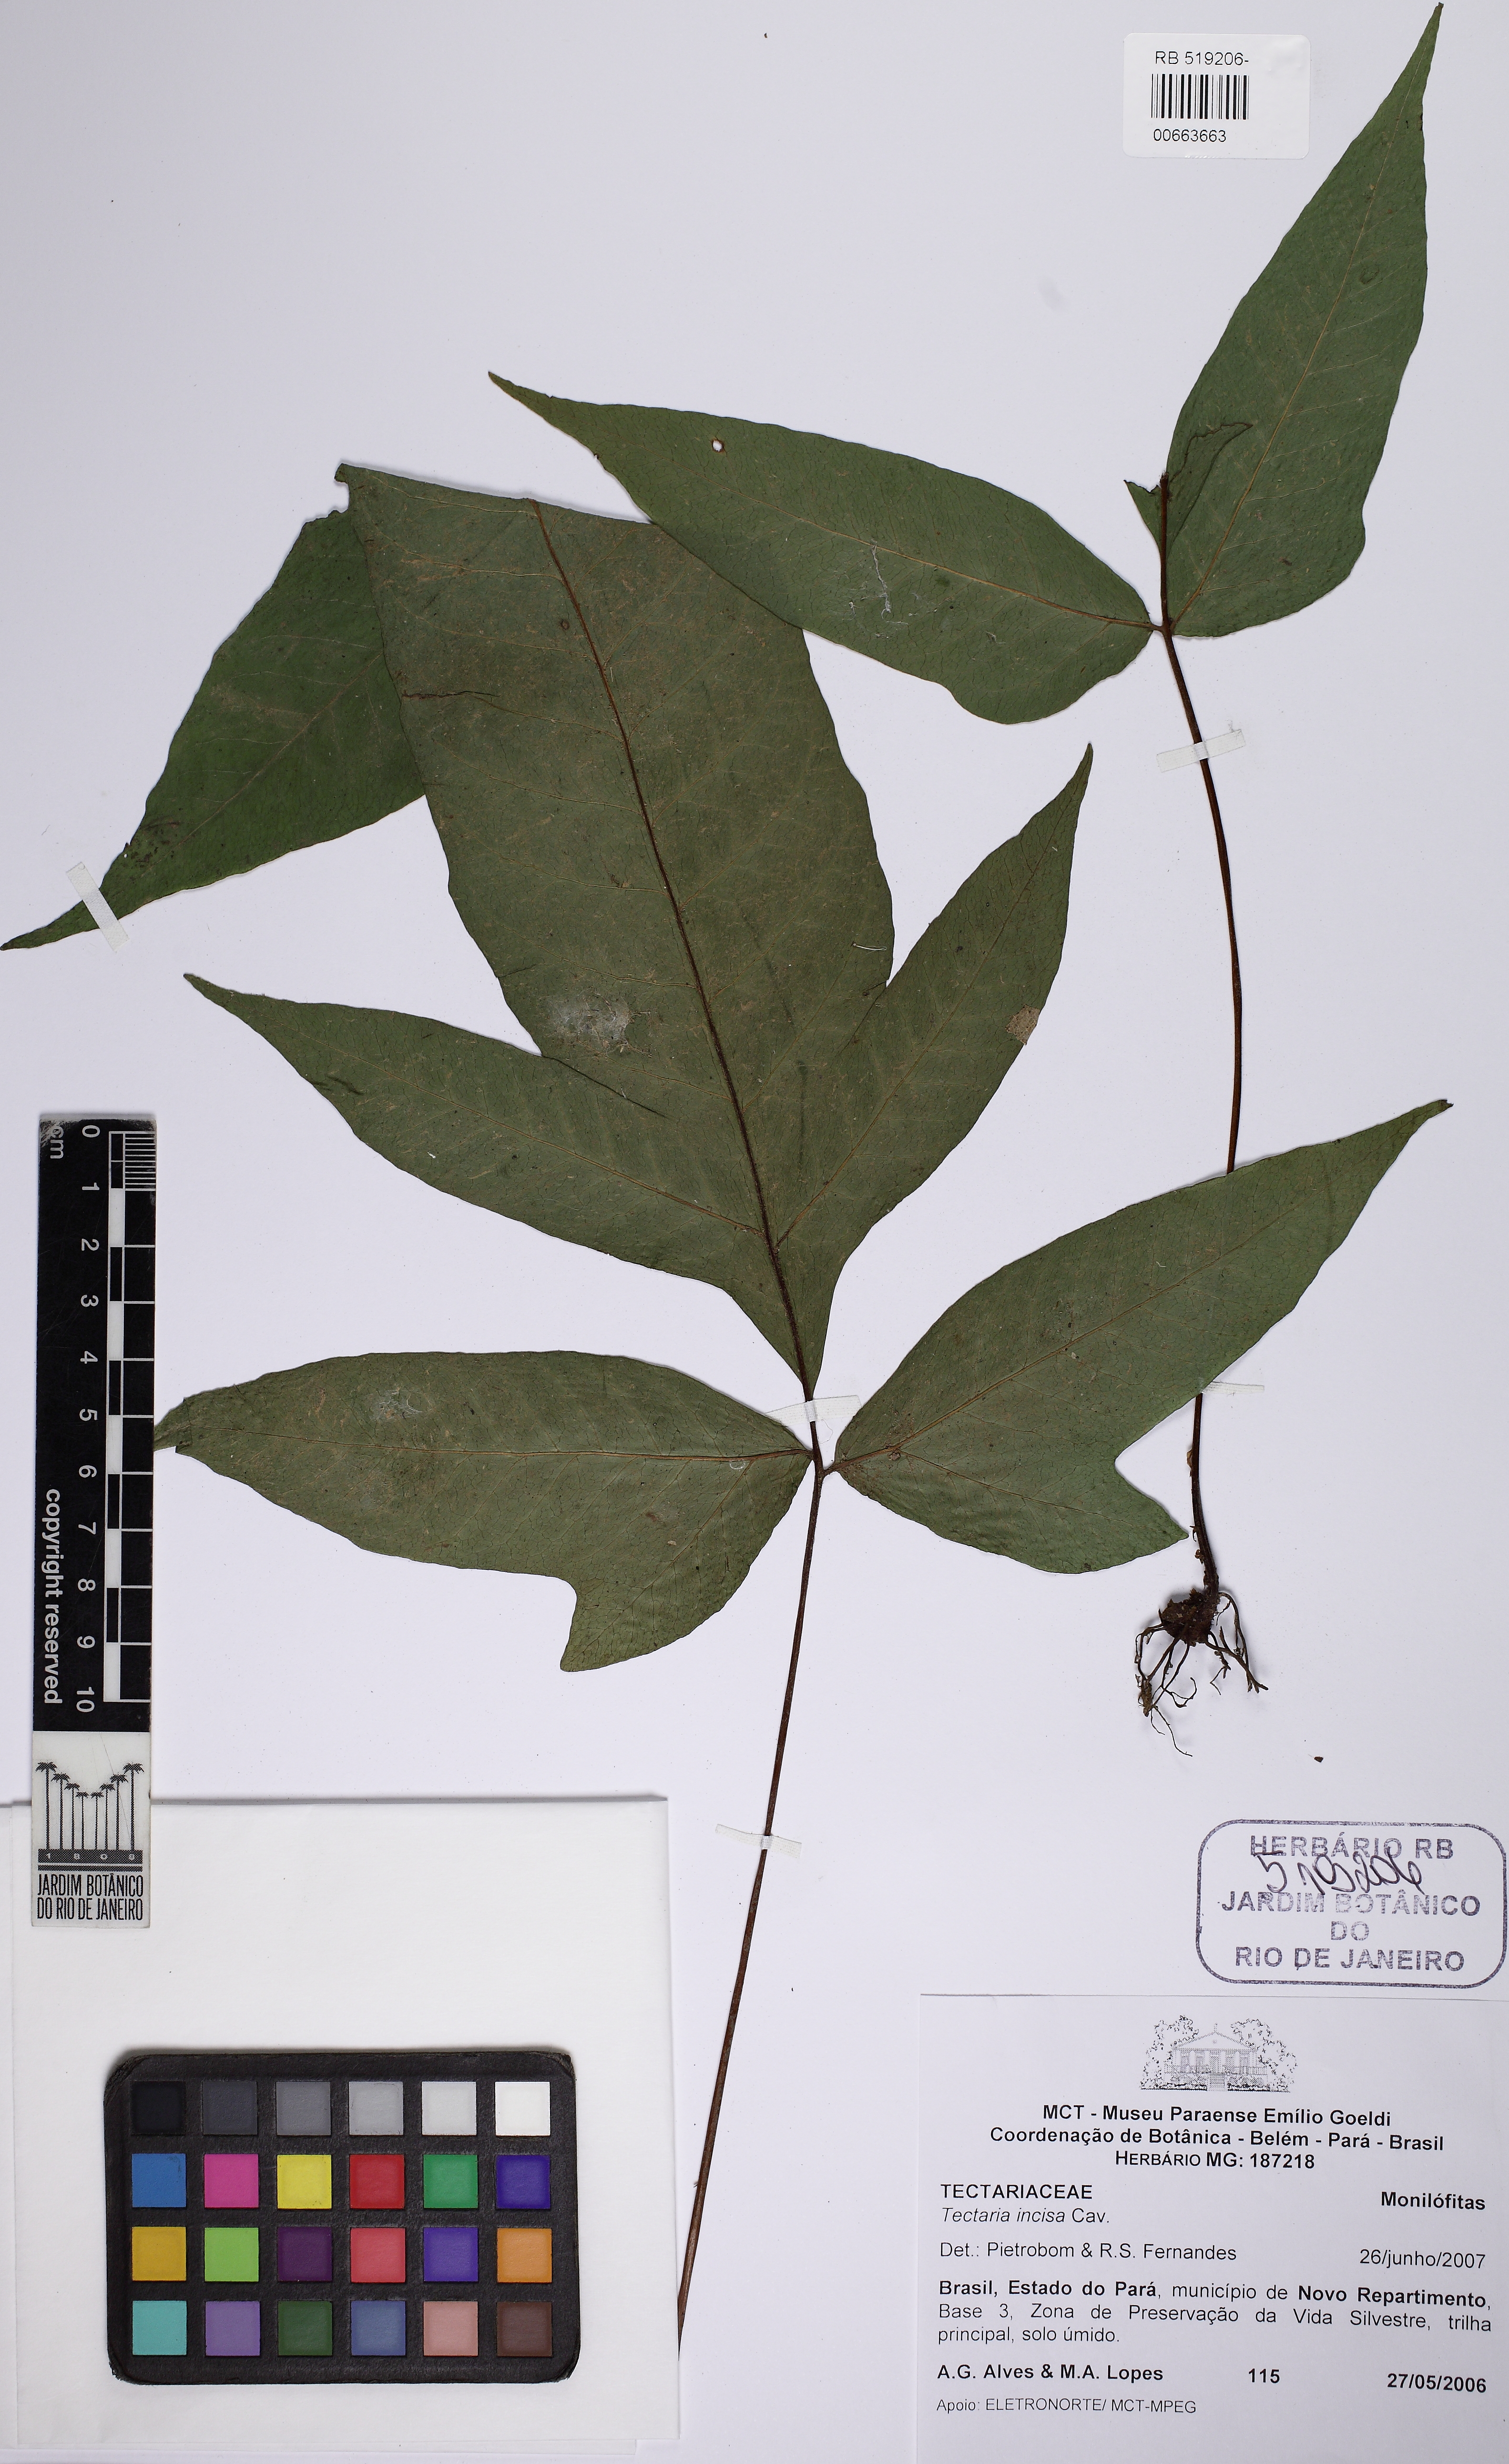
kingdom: Plantae
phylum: Tracheophyta
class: Polypodiopsida
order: Polypodiales
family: Tectariaceae
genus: Tectaria
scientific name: Tectaria incisa
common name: Incised halberd fern
